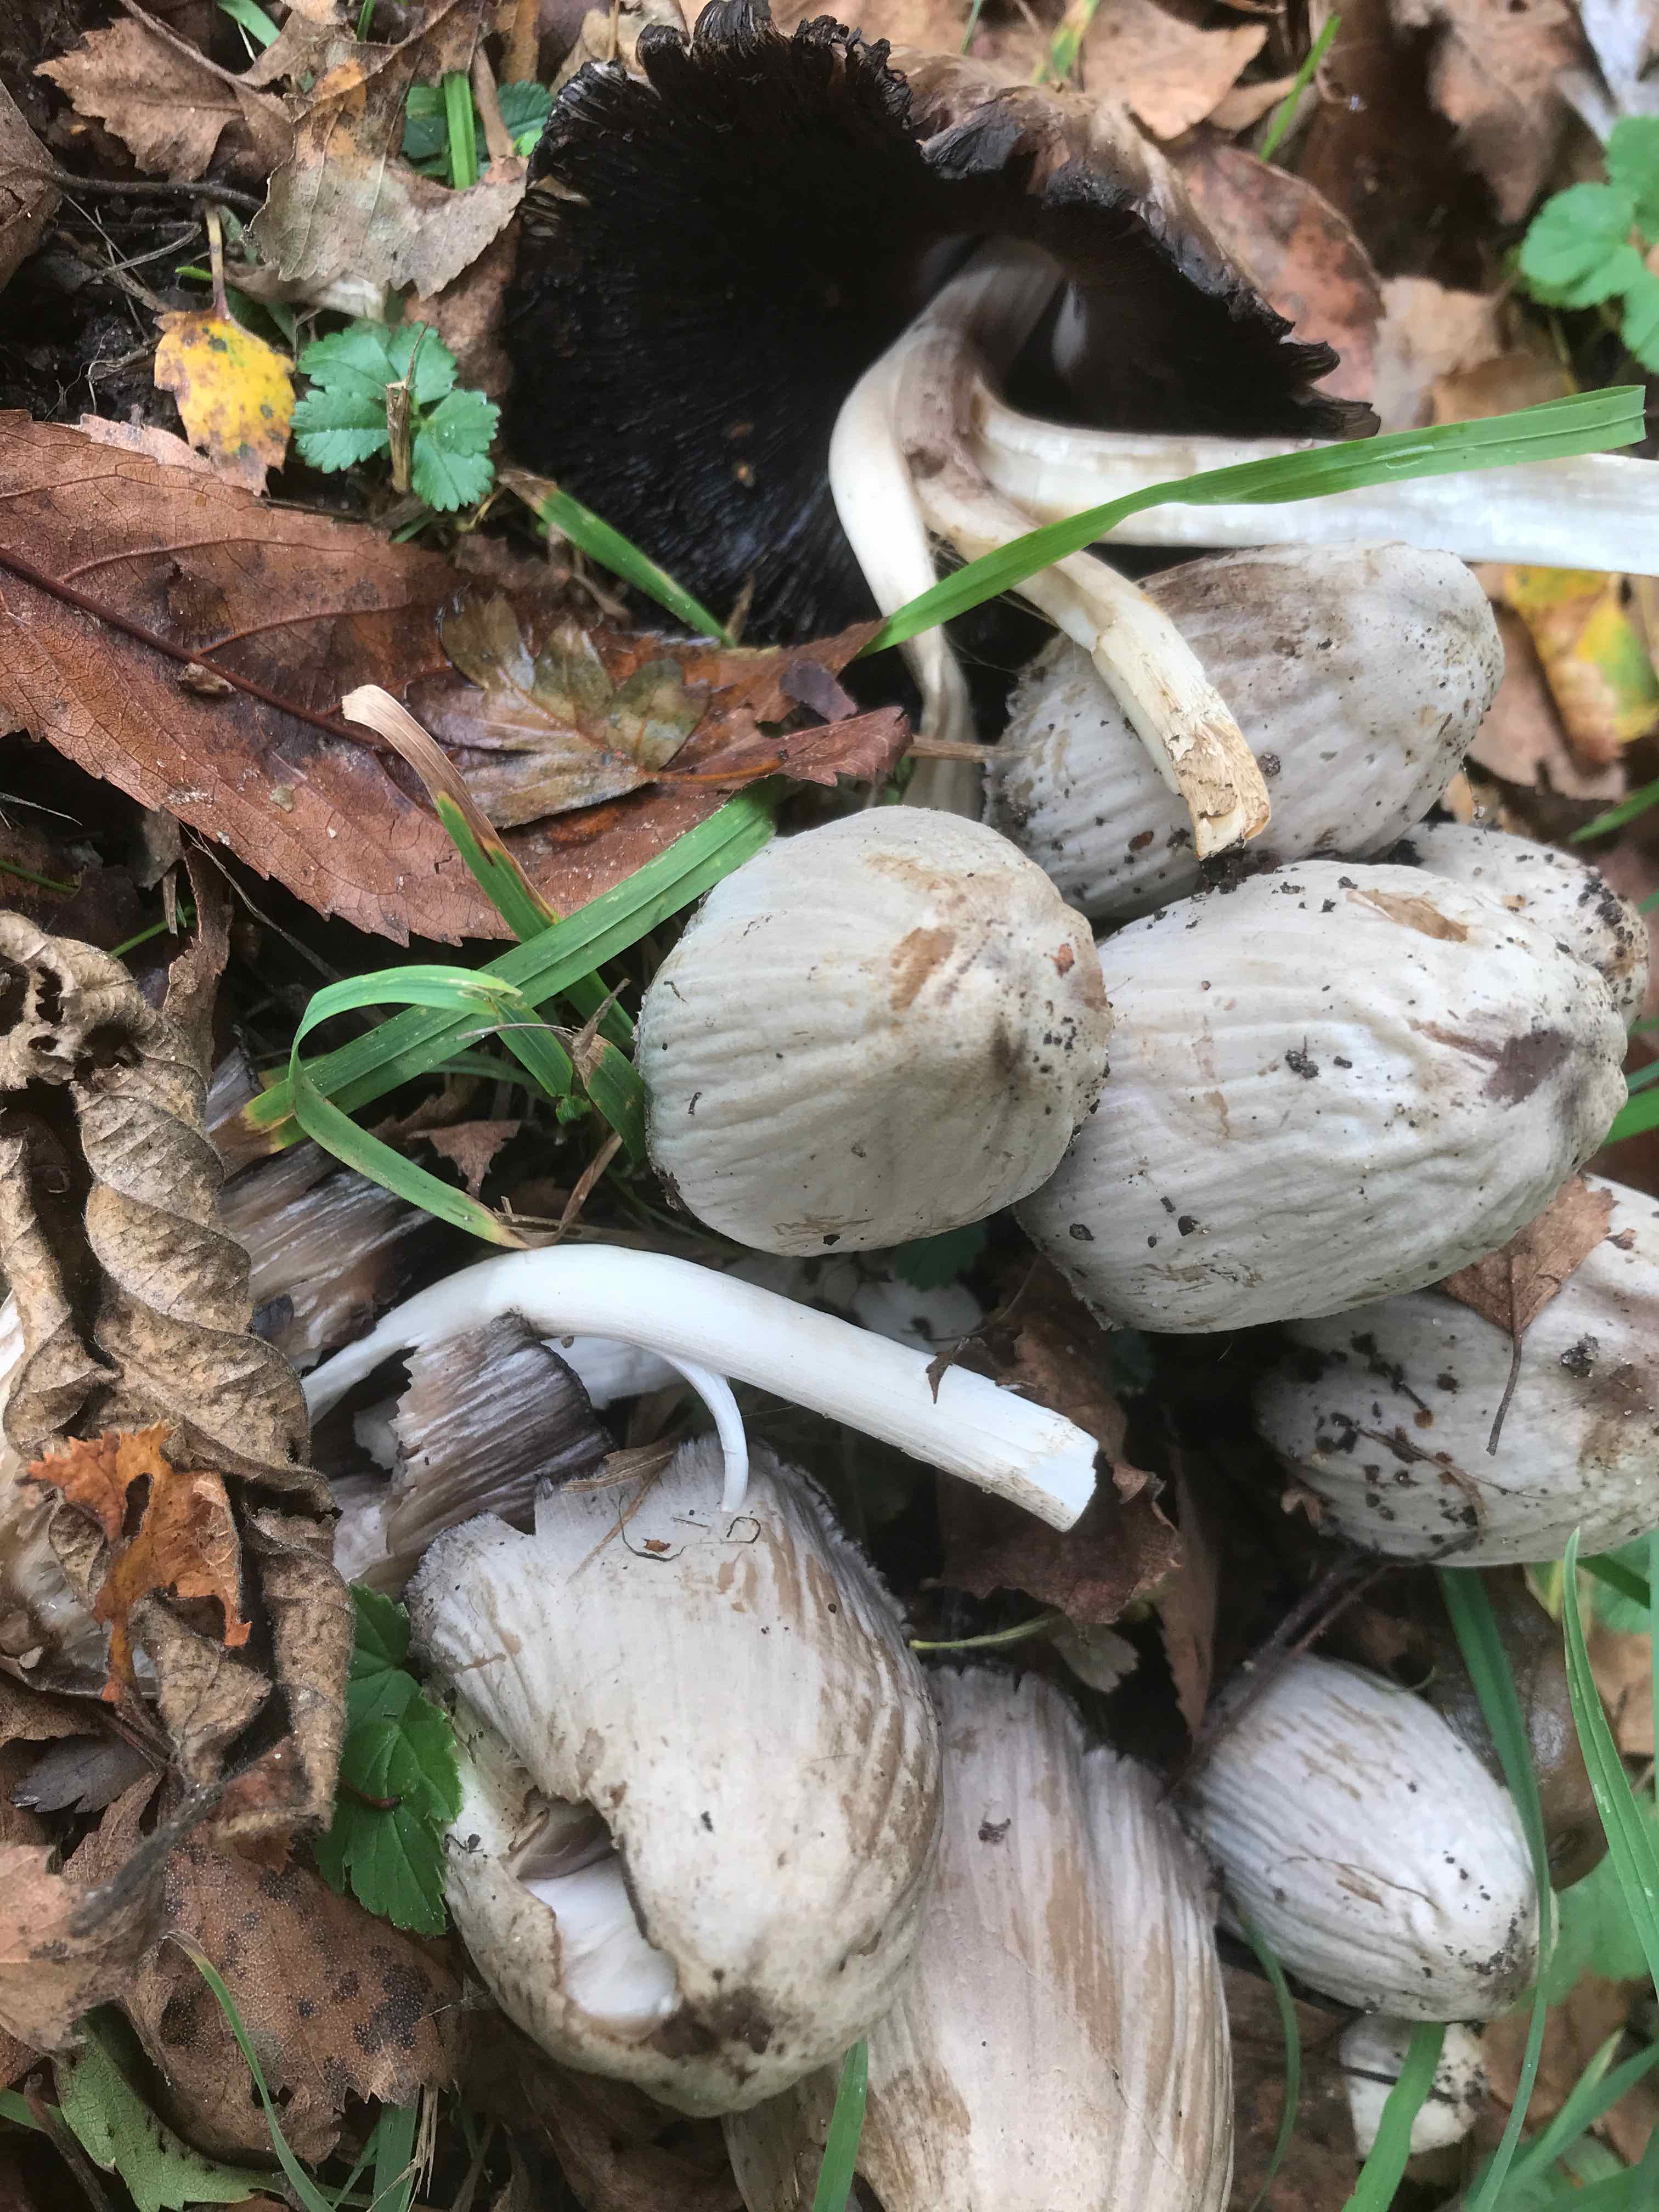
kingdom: Fungi
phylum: Basidiomycota
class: Agaricomycetes
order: Agaricales
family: Psathyrellaceae
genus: Coprinopsis
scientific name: Coprinopsis atramentaria
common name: almindelig blækhat
